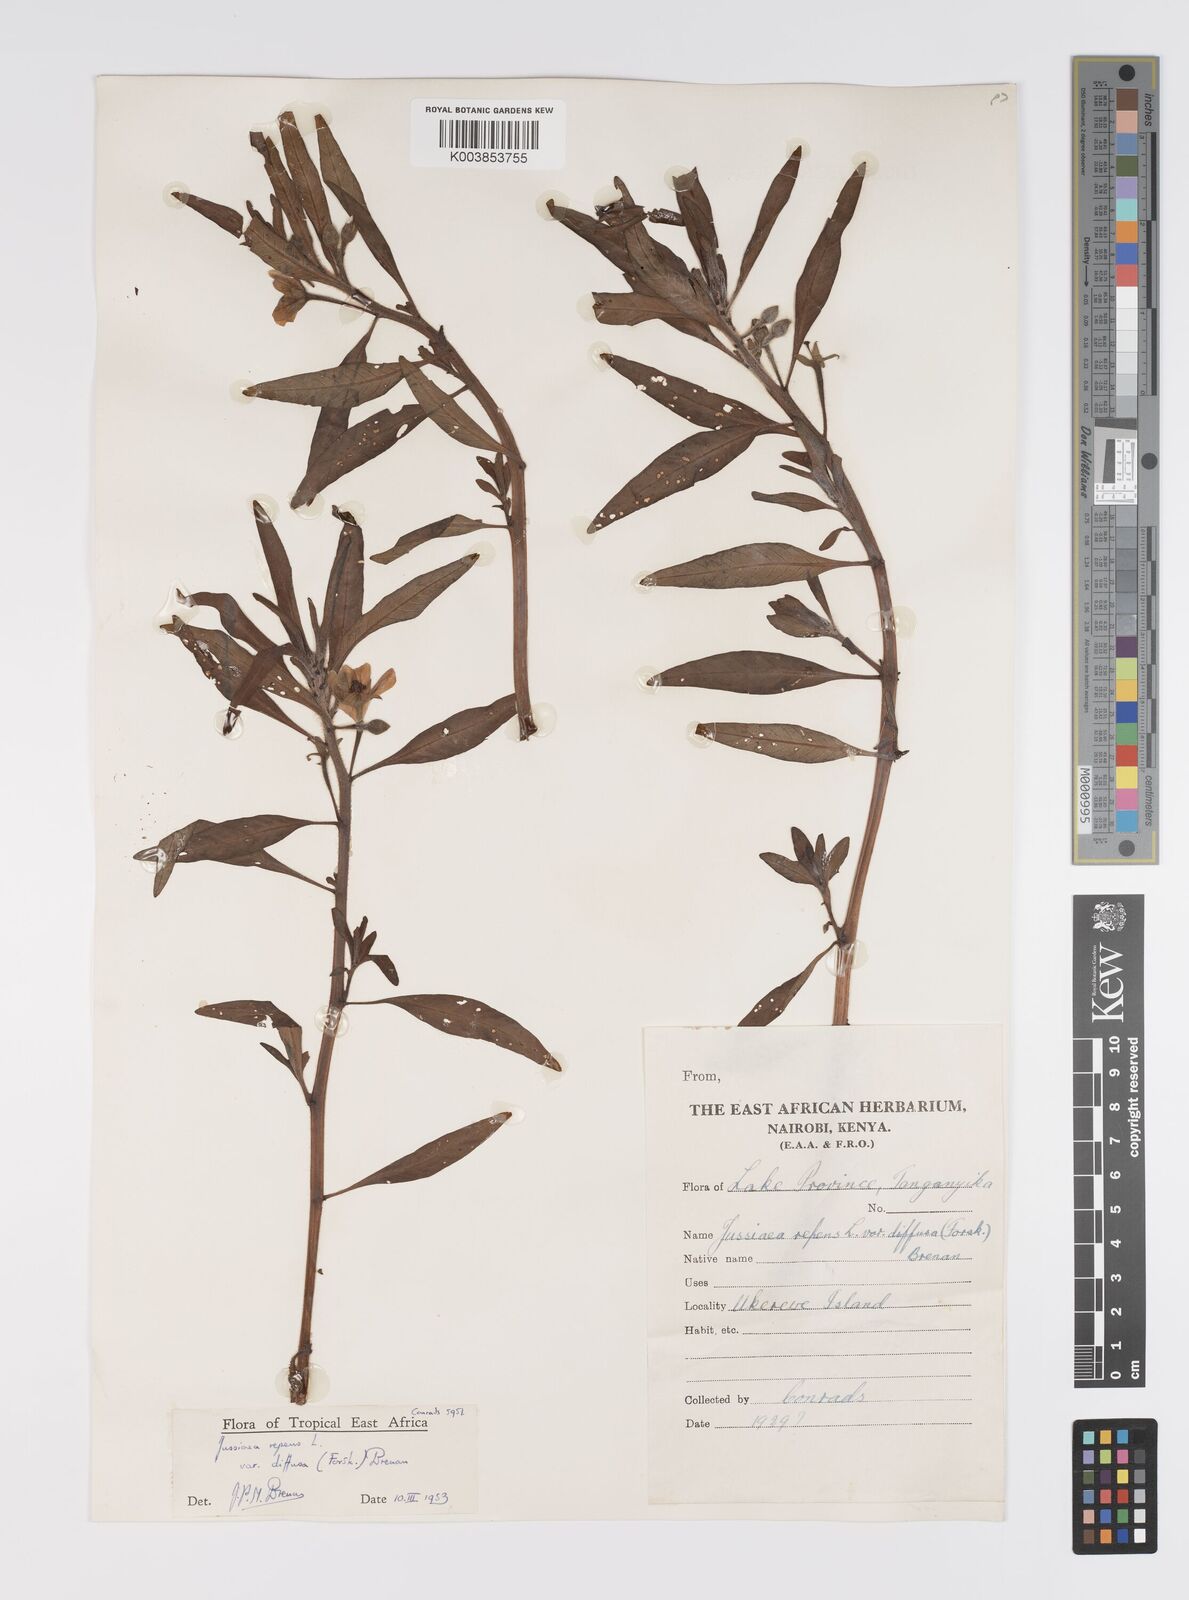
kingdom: Plantae
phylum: Tracheophyta
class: Magnoliopsida
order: Myrtales
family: Onagraceae
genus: Ludwigia
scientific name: Ludwigia adscendens
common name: Creeping water primrose
